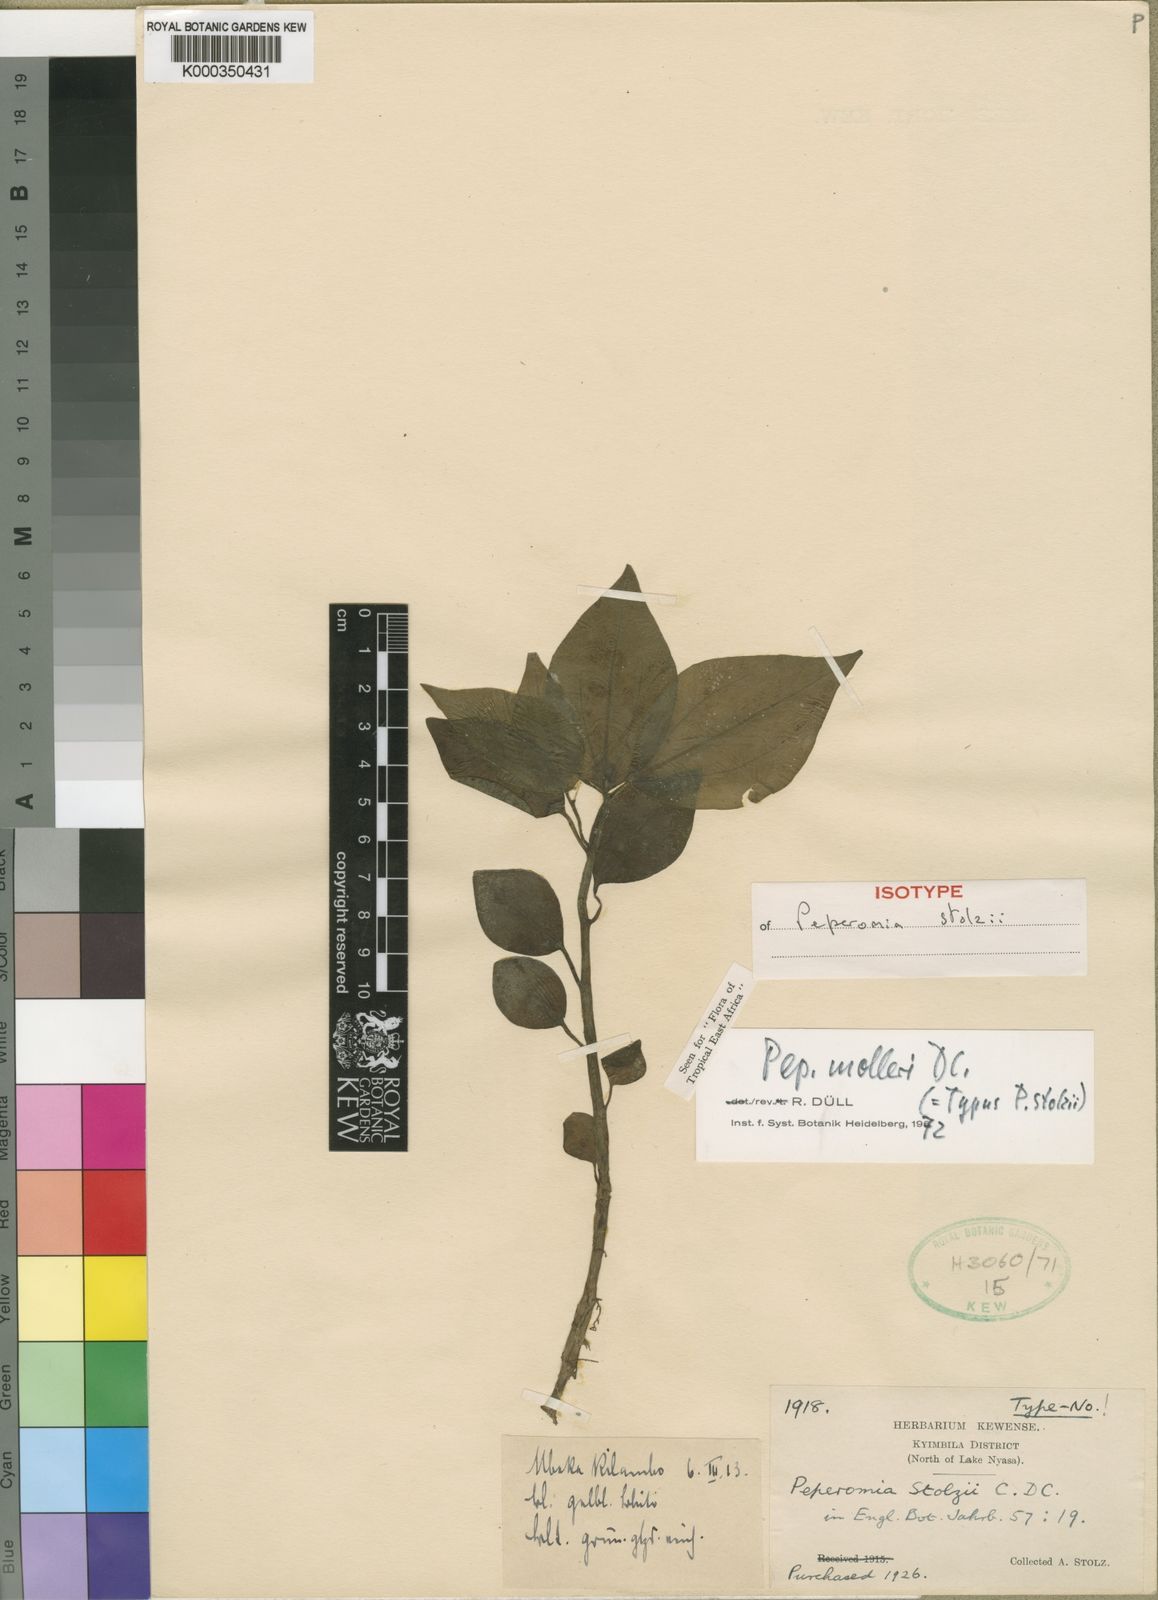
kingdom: Plantae
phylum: Tracheophyta
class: Magnoliopsida
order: Piperales
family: Piperaceae
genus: Peperomia
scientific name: Peperomia molleri
